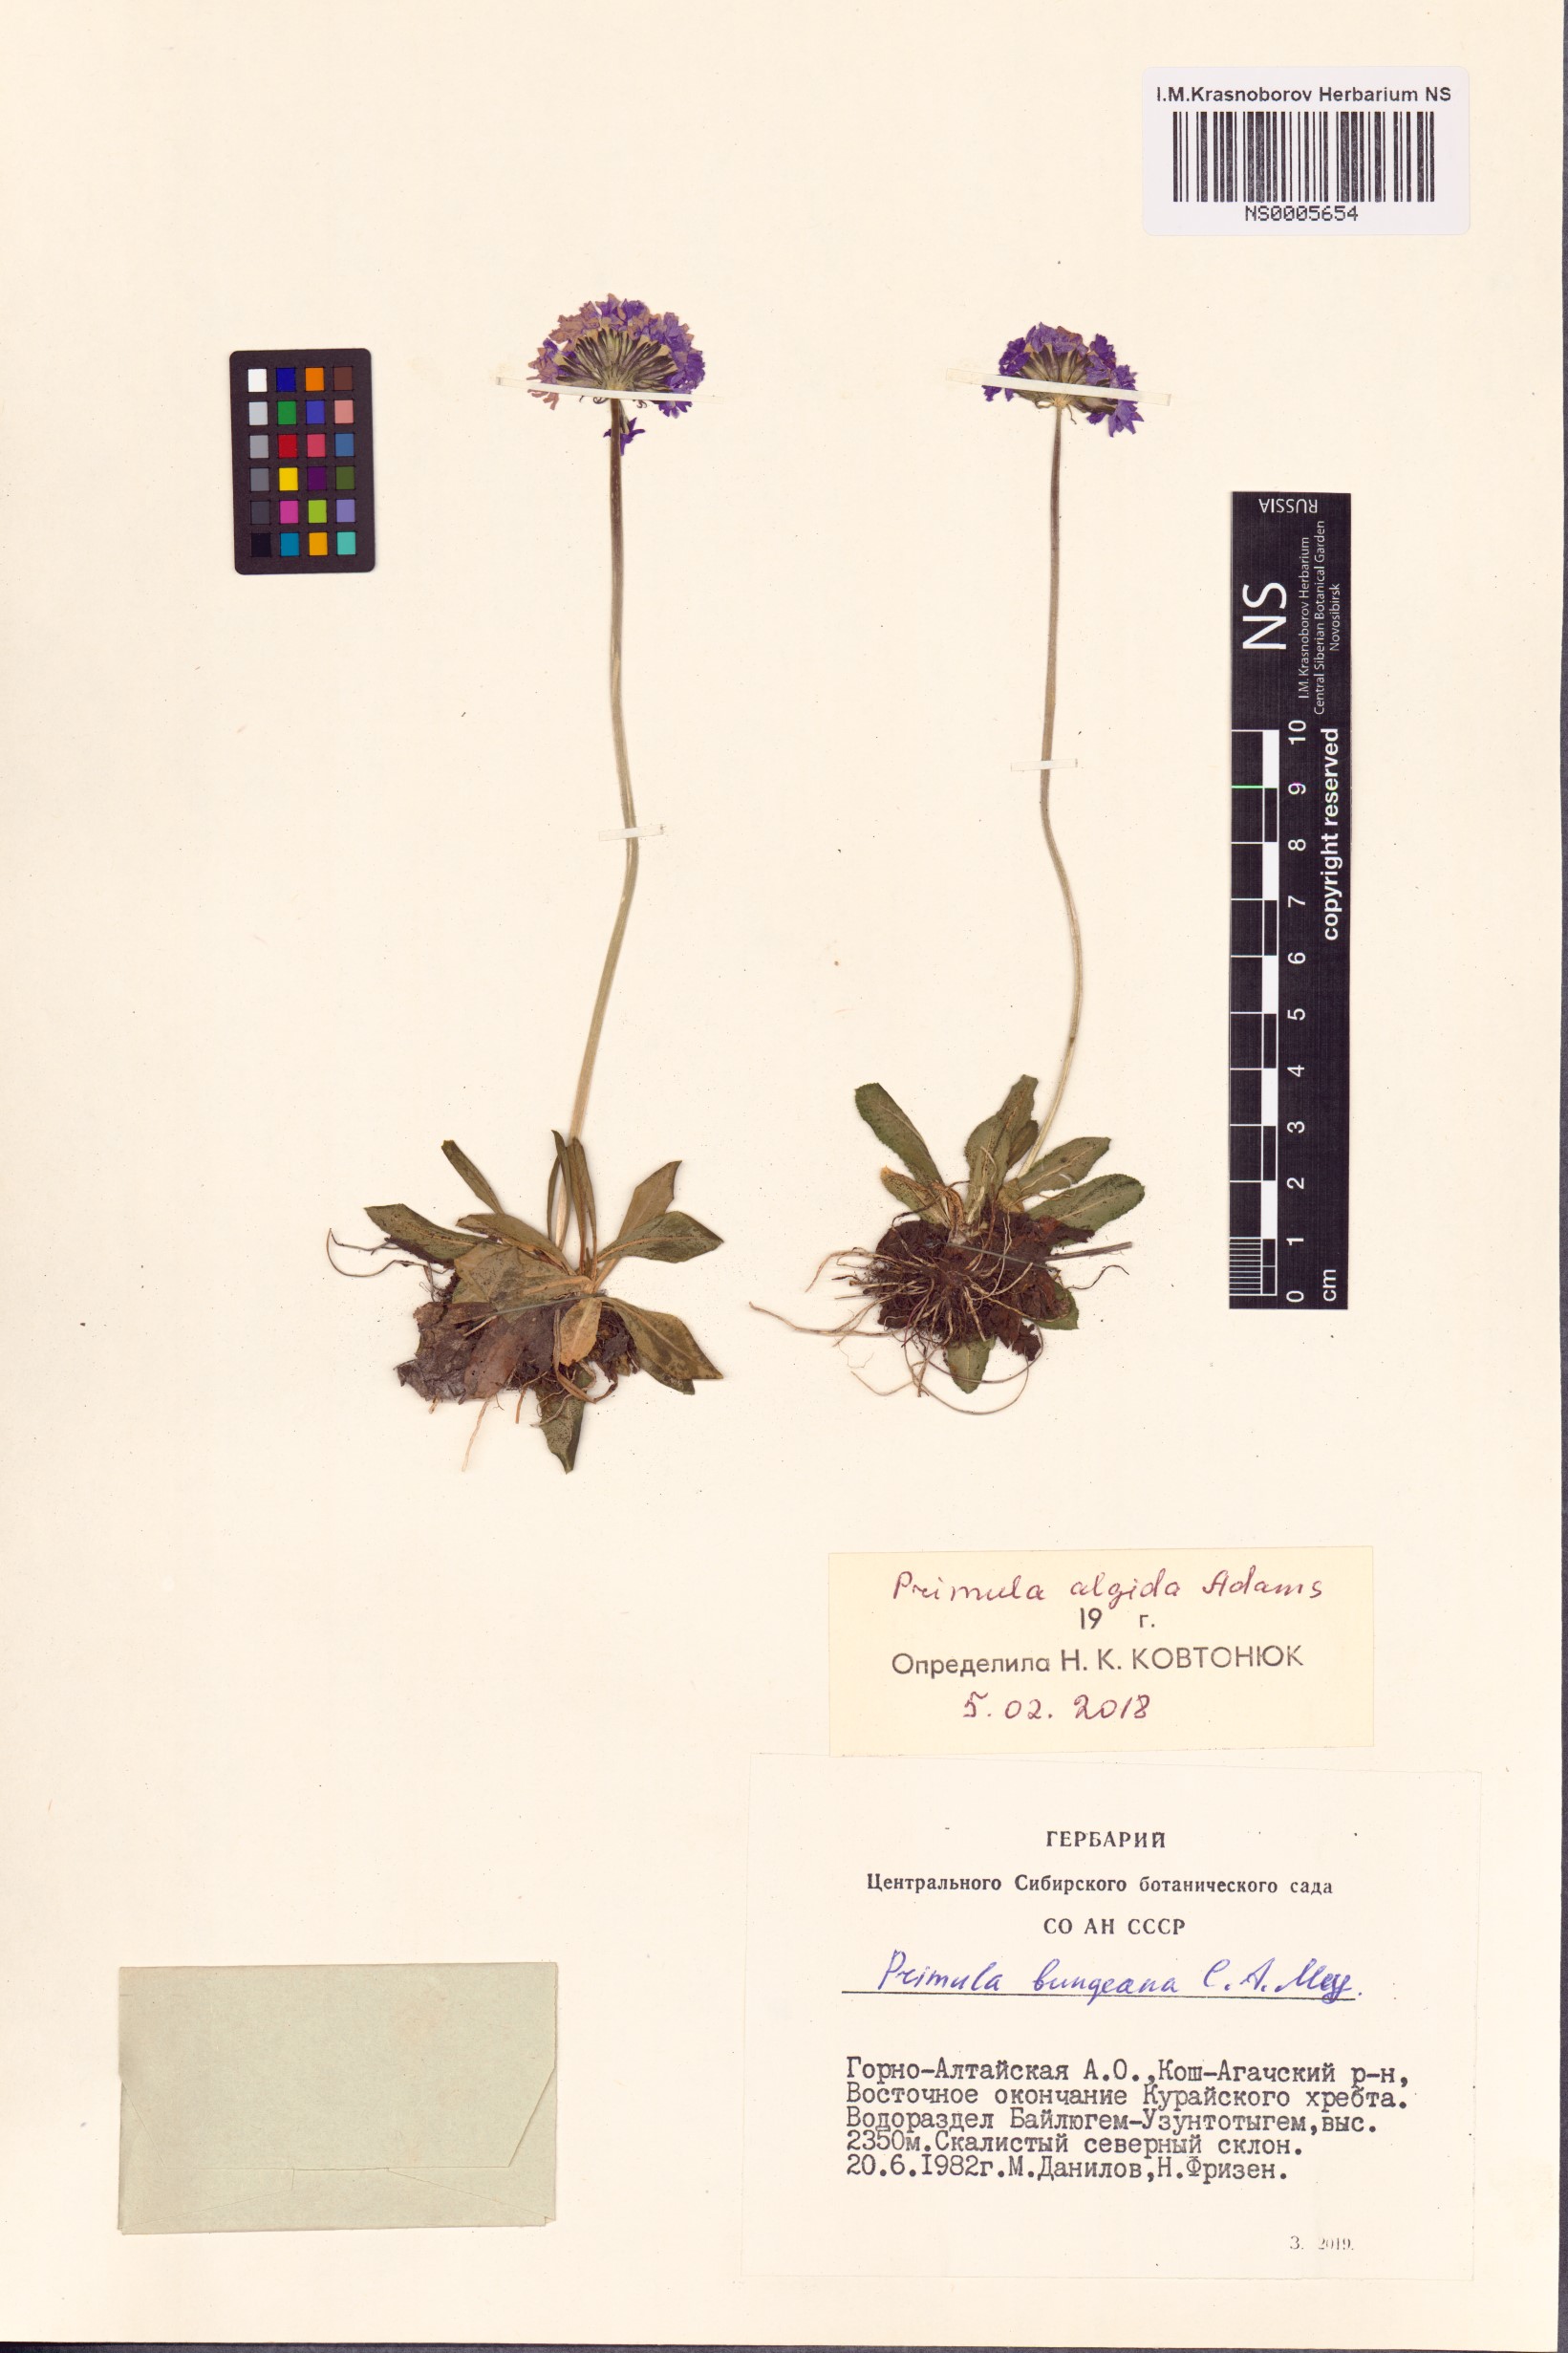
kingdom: Plantae
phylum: Tracheophyta
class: Magnoliopsida
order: Ericales
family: Primulaceae
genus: Primula
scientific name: Primula algida
